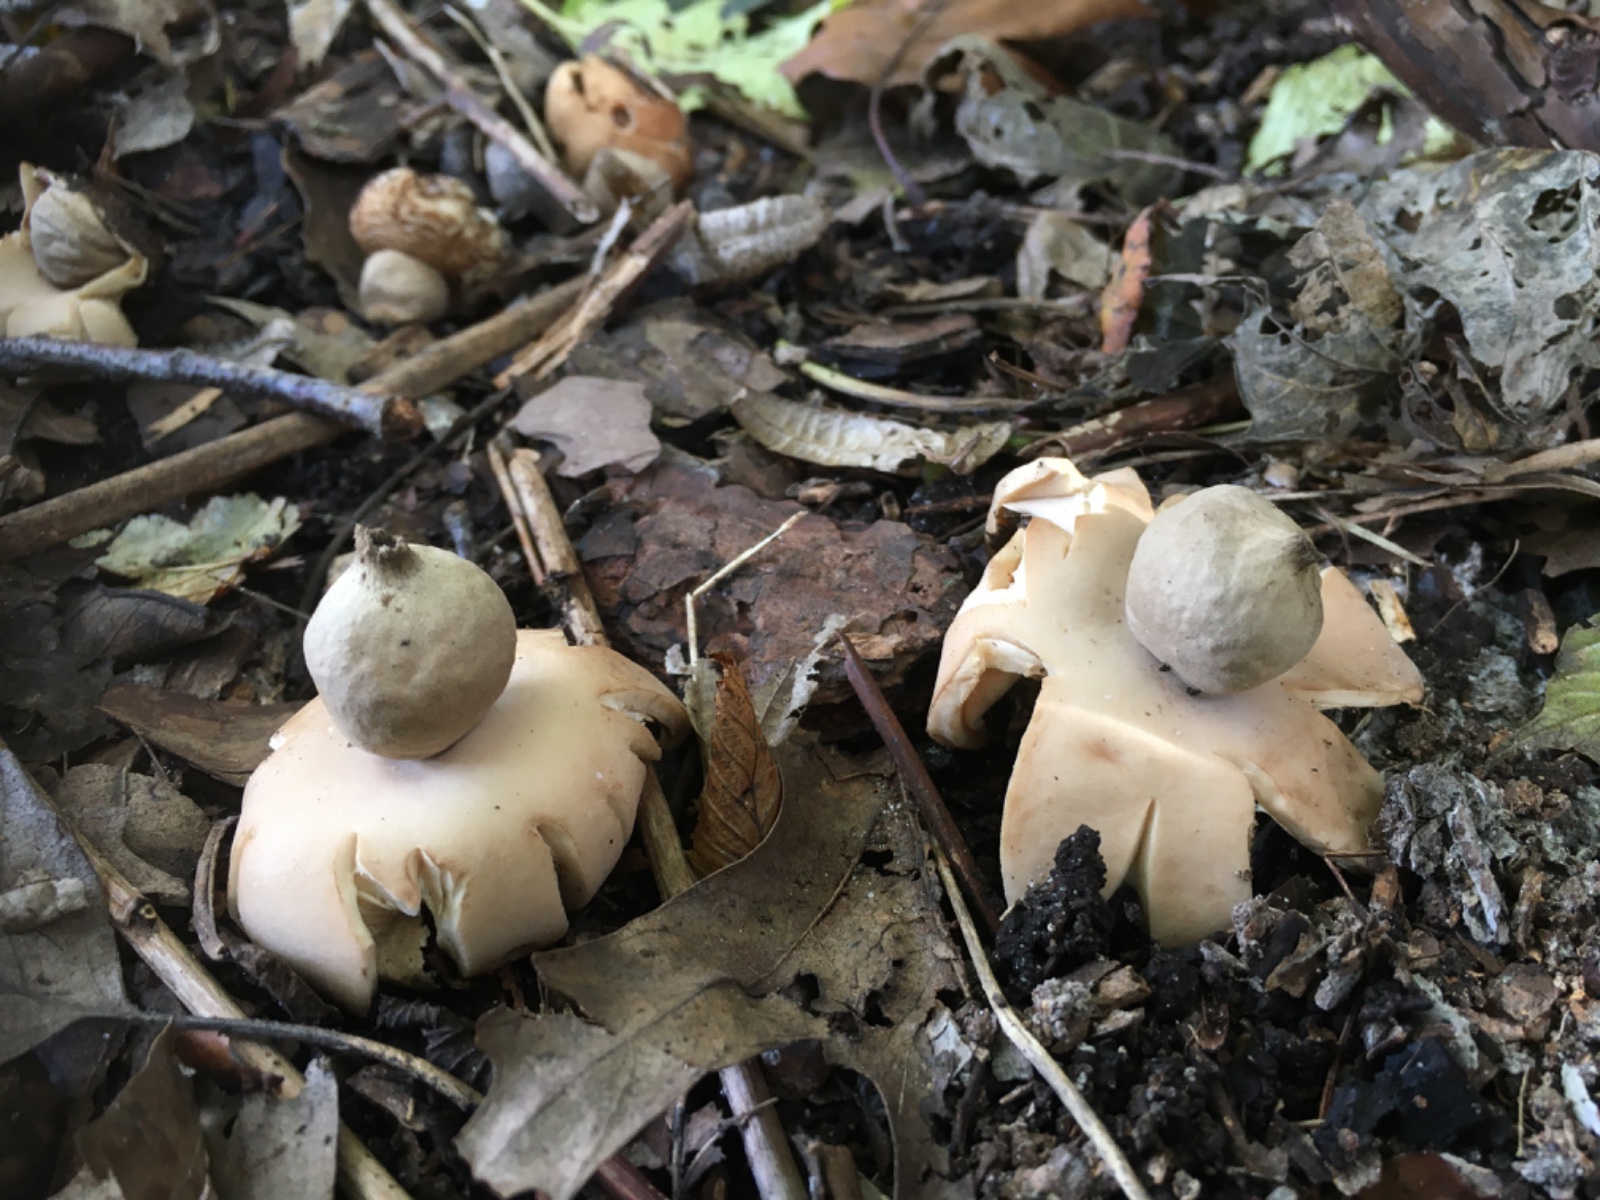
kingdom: Fungi
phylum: Basidiomycota
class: Agaricomycetes
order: Geastrales
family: Geastraceae
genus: Geastrum
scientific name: Geastrum fimbriatum
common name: frynset stjernebold
